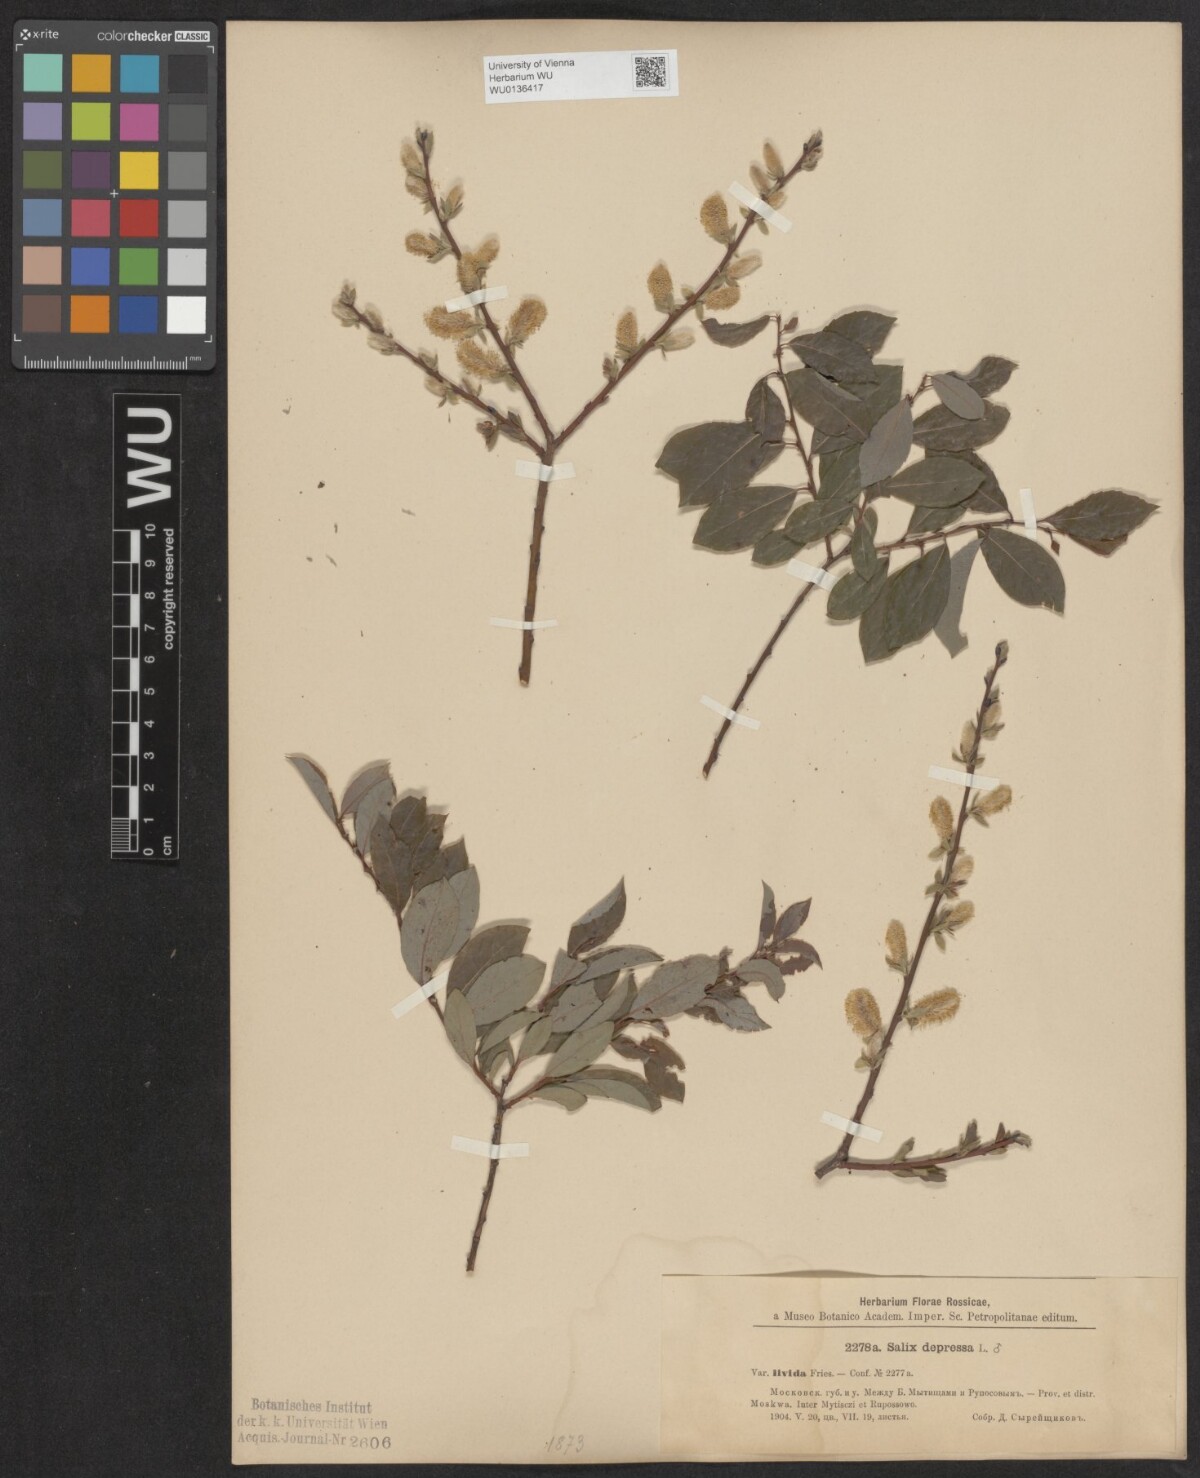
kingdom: Plantae
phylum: Tracheophyta
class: Magnoliopsida
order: Malpighiales
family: Salicaceae
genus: Salix
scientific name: Salix lanata
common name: Woolly willow
